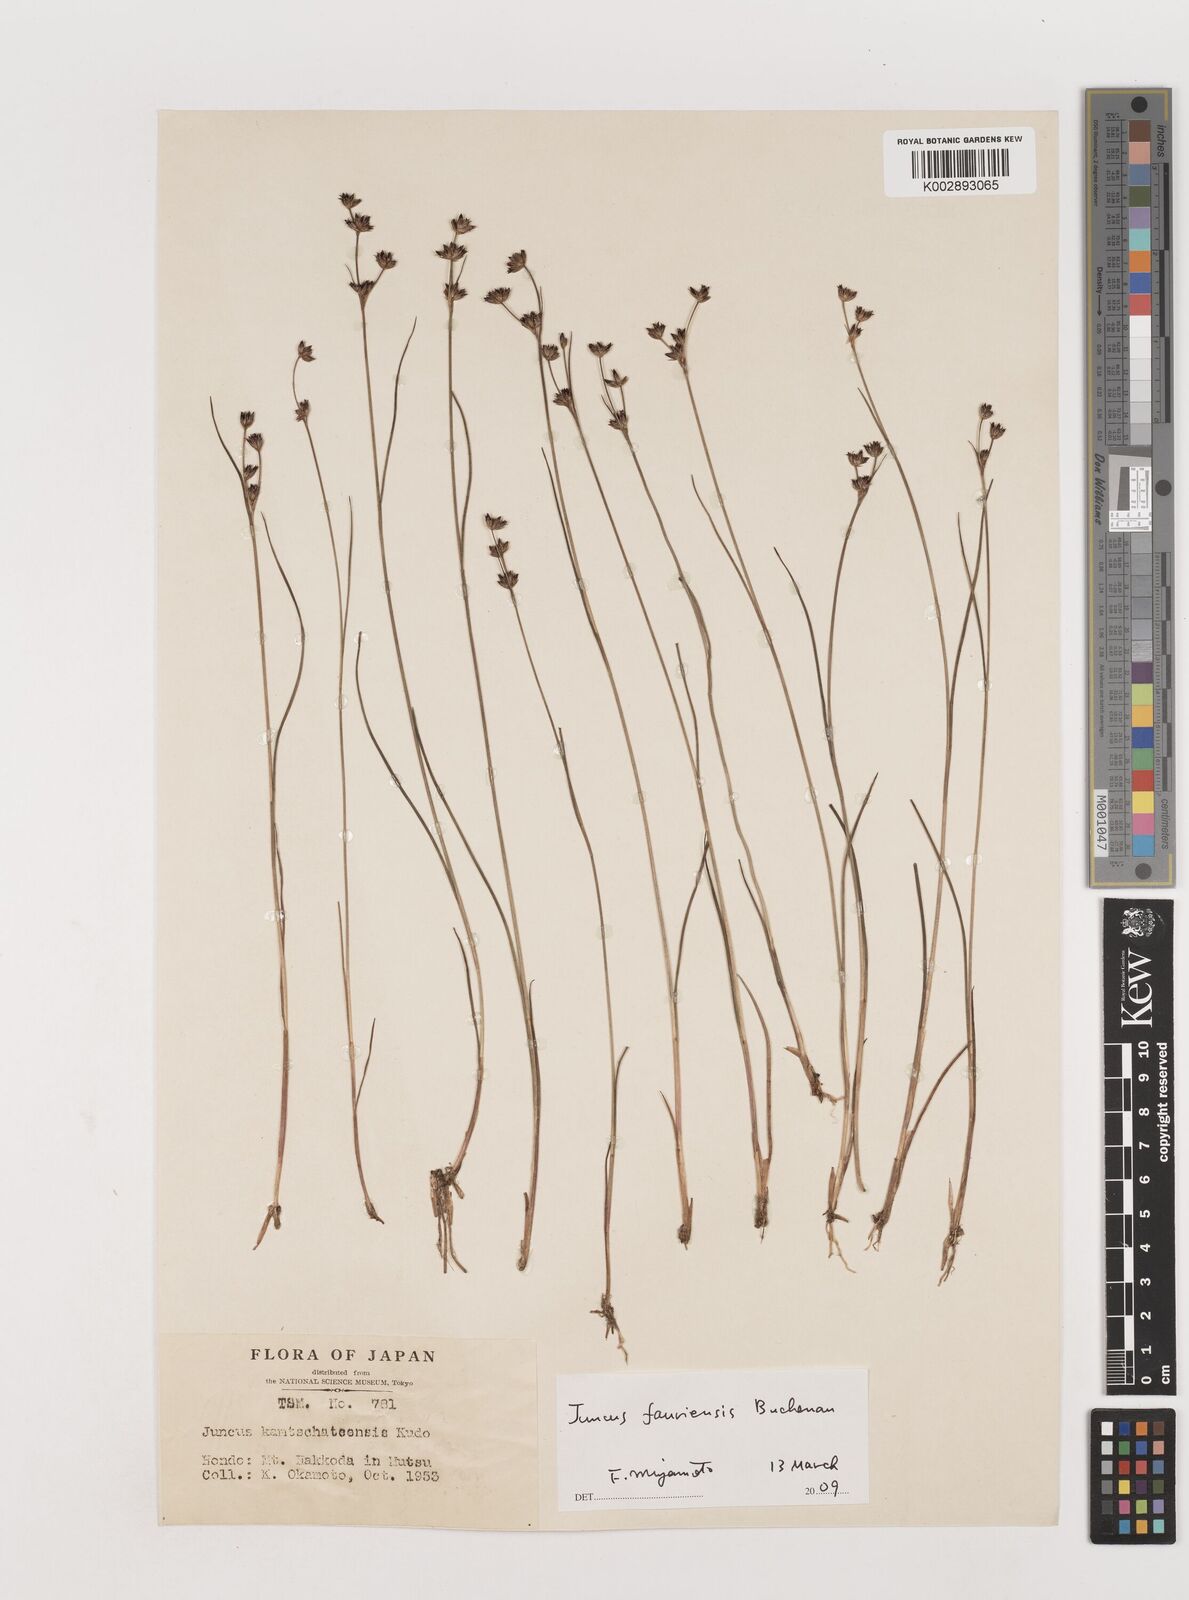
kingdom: Plantae
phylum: Tracheophyta
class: Liliopsida
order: Poales
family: Juncaceae
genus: Juncus
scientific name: Juncus fauriensis
